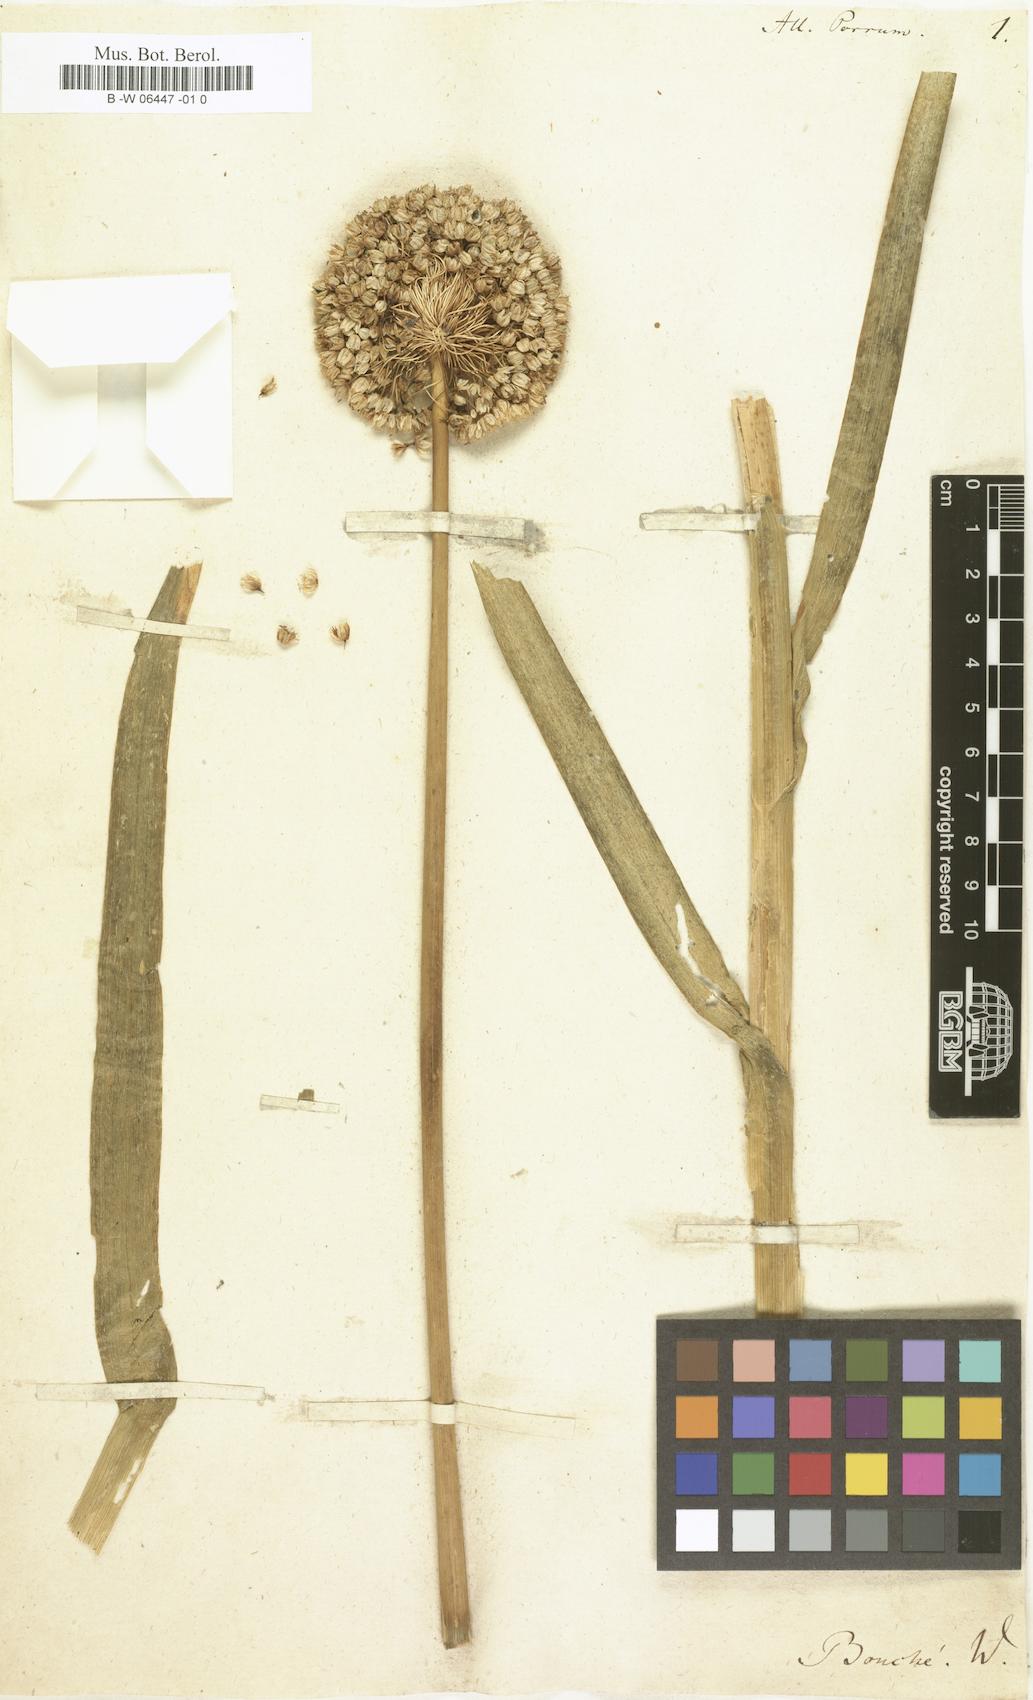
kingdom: Plantae
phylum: Tracheophyta
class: Liliopsida
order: Asparagales
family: Amaryllidaceae
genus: Allium
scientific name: Allium
